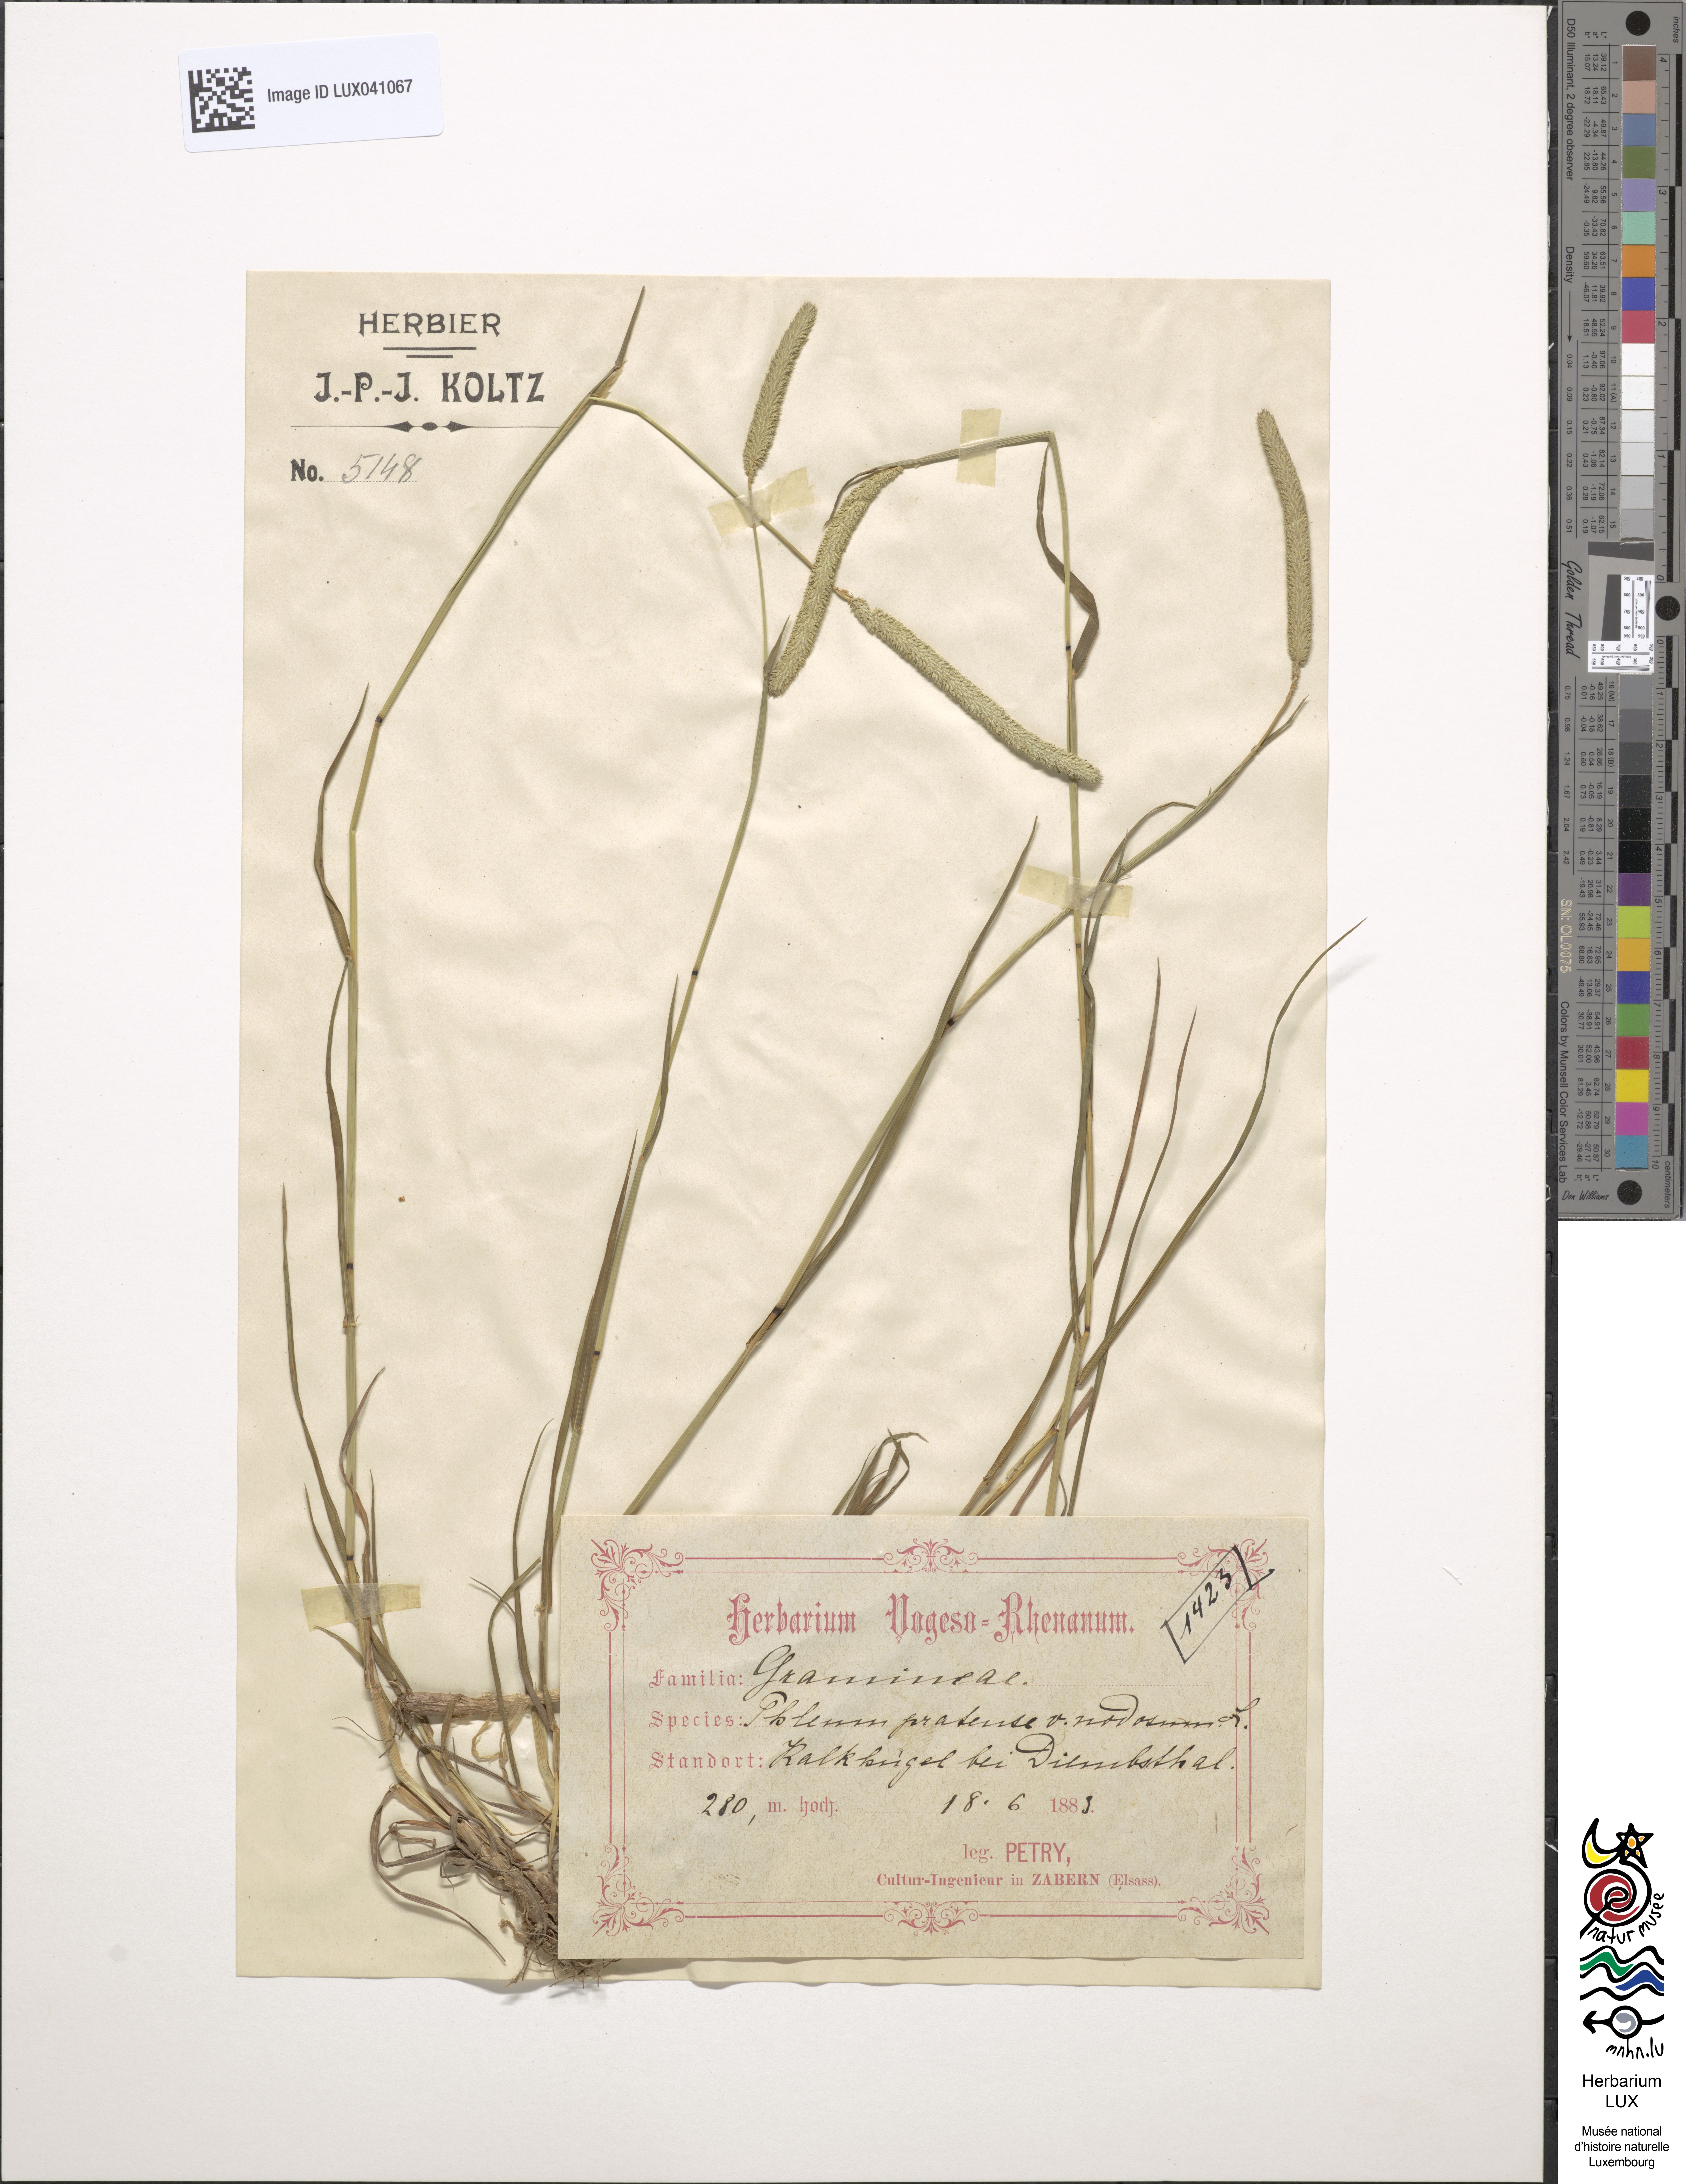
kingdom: Plantae
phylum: Tracheophyta
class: Liliopsida
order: Poales
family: Poaceae
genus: Phleum
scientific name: Phleum pratense
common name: Timothy grass
